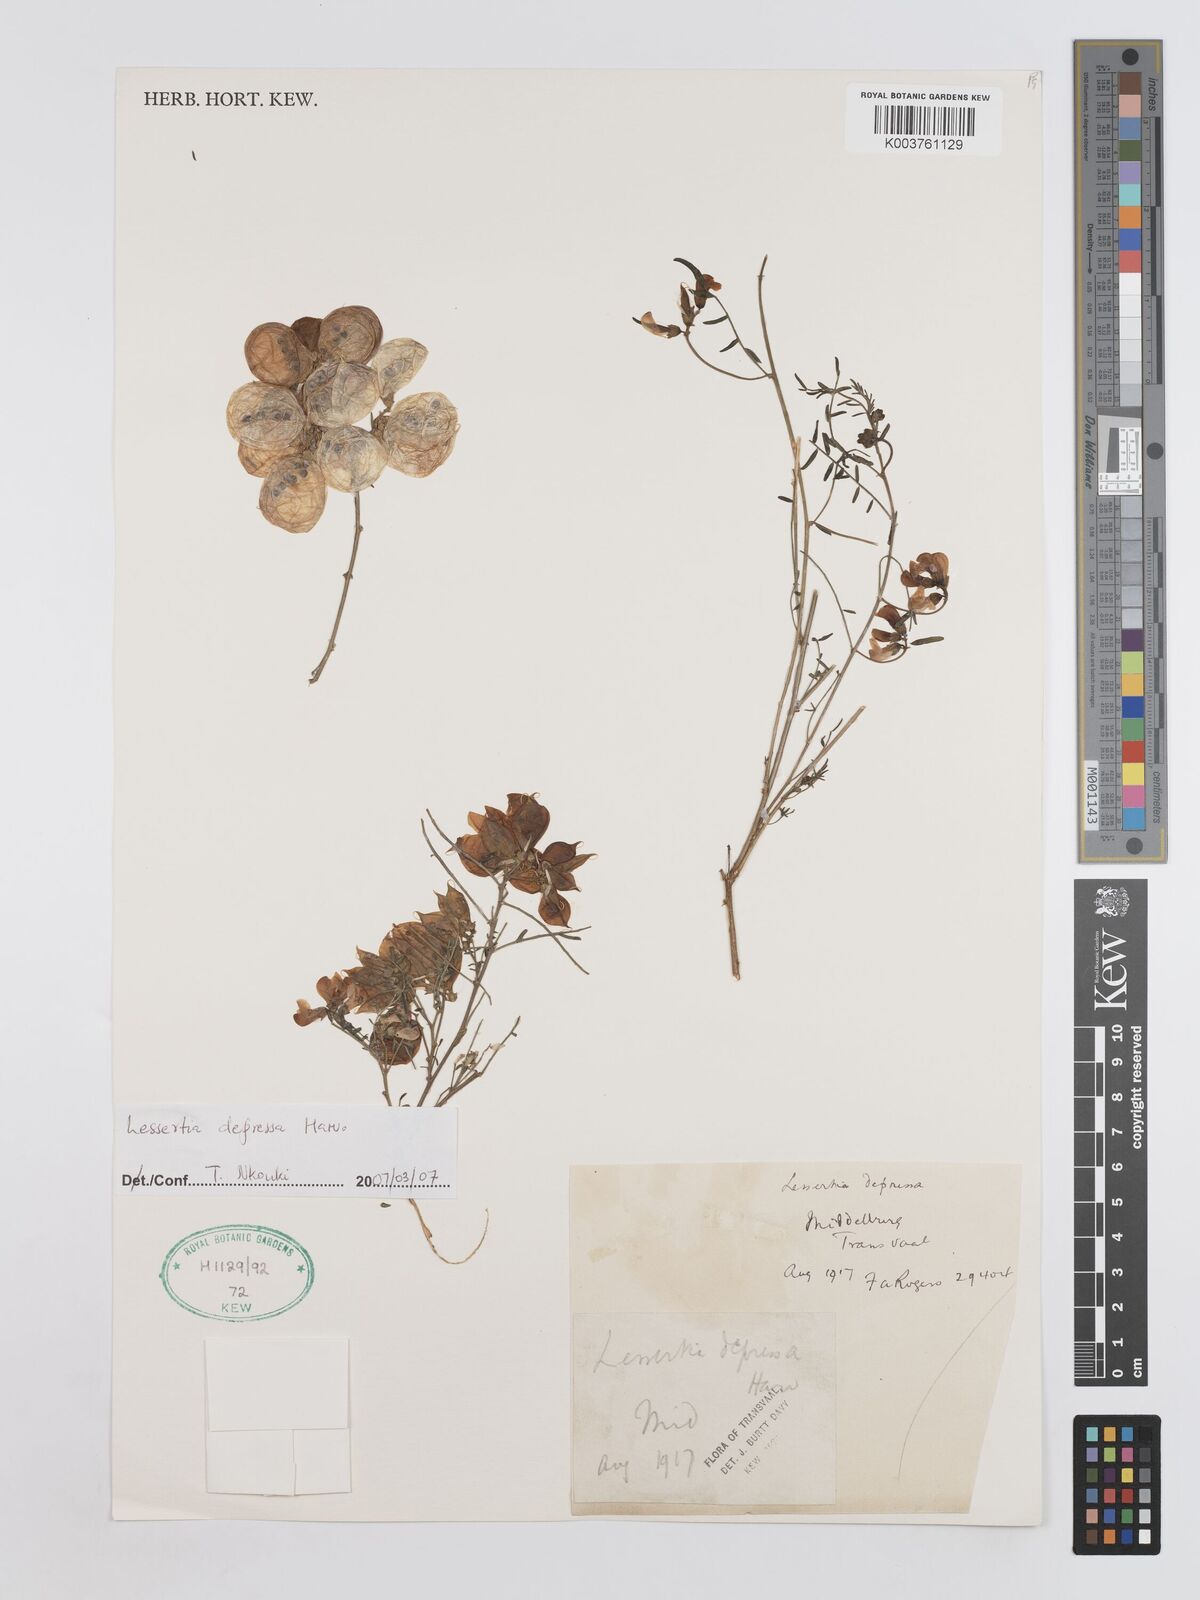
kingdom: Plantae
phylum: Tracheophyta
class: Magnoliopsida
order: Fabales
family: Fabaceae
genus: Lessertia
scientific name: Lessertia depressa
